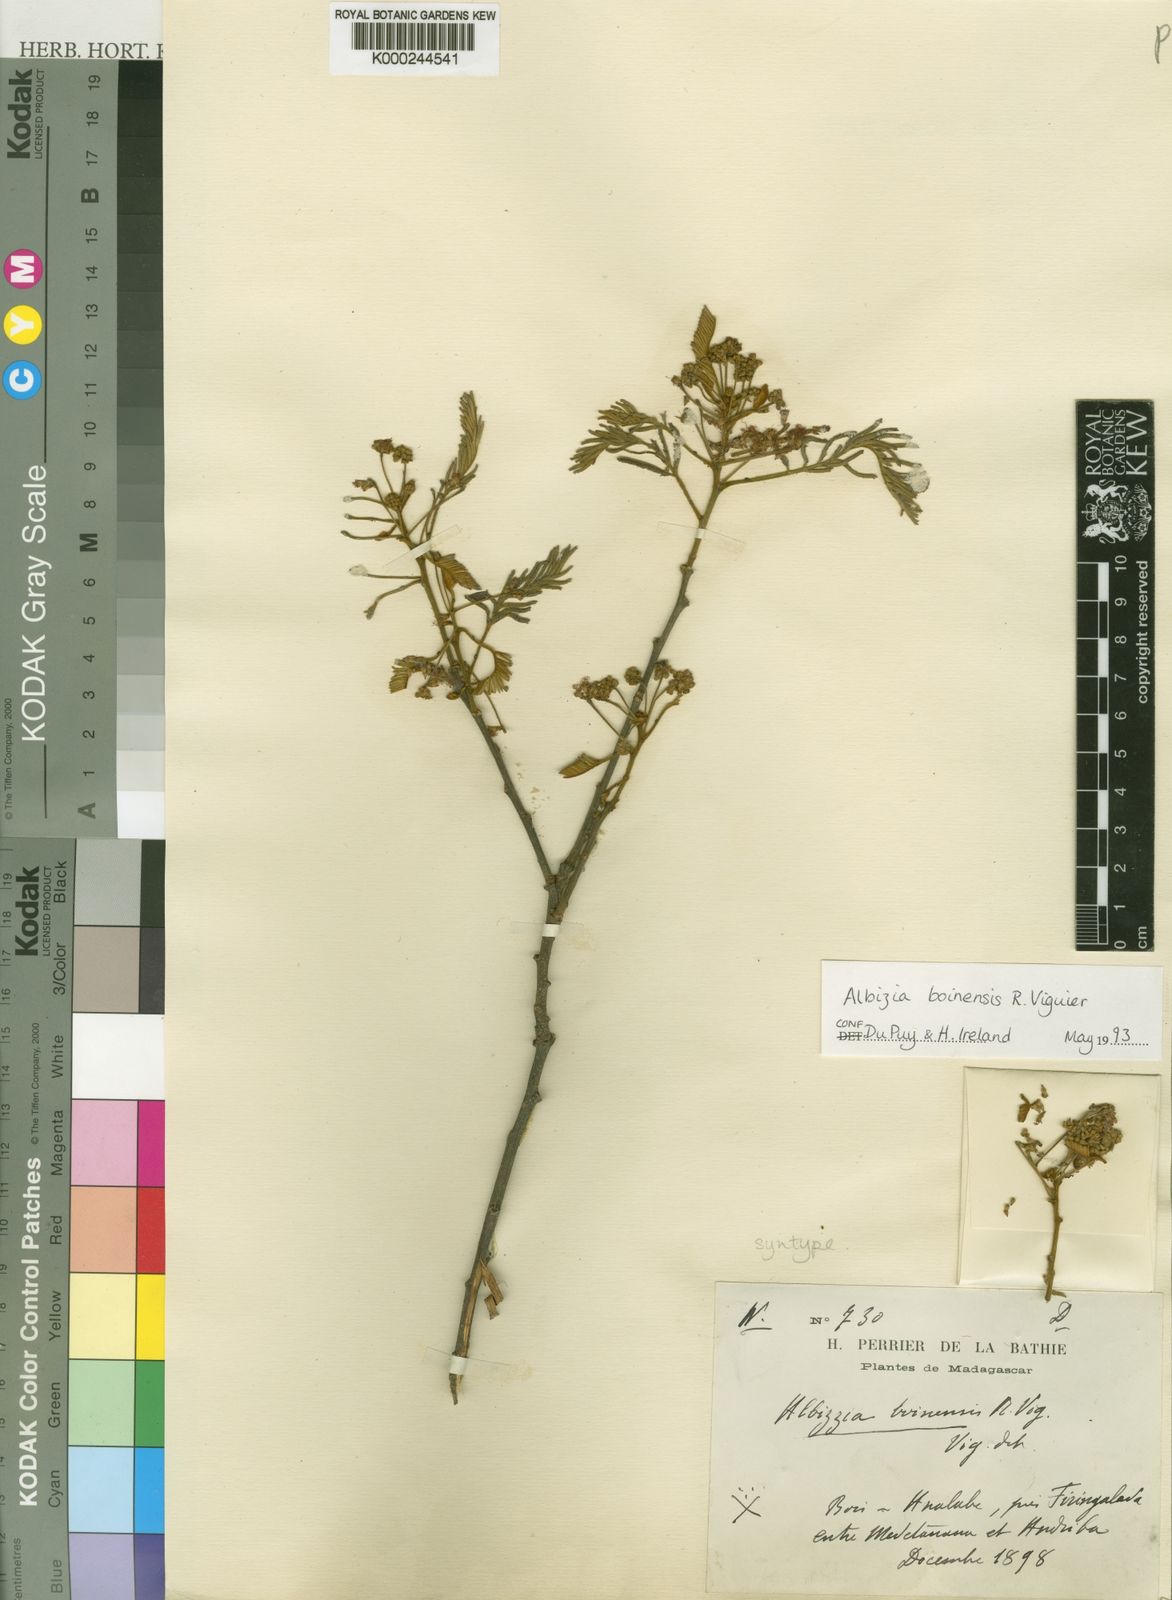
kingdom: Plantae
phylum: Tracheophyta
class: Magnoliopsida
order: Fabales
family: Fabaceae
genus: Albizia
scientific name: Albizia boinensis
